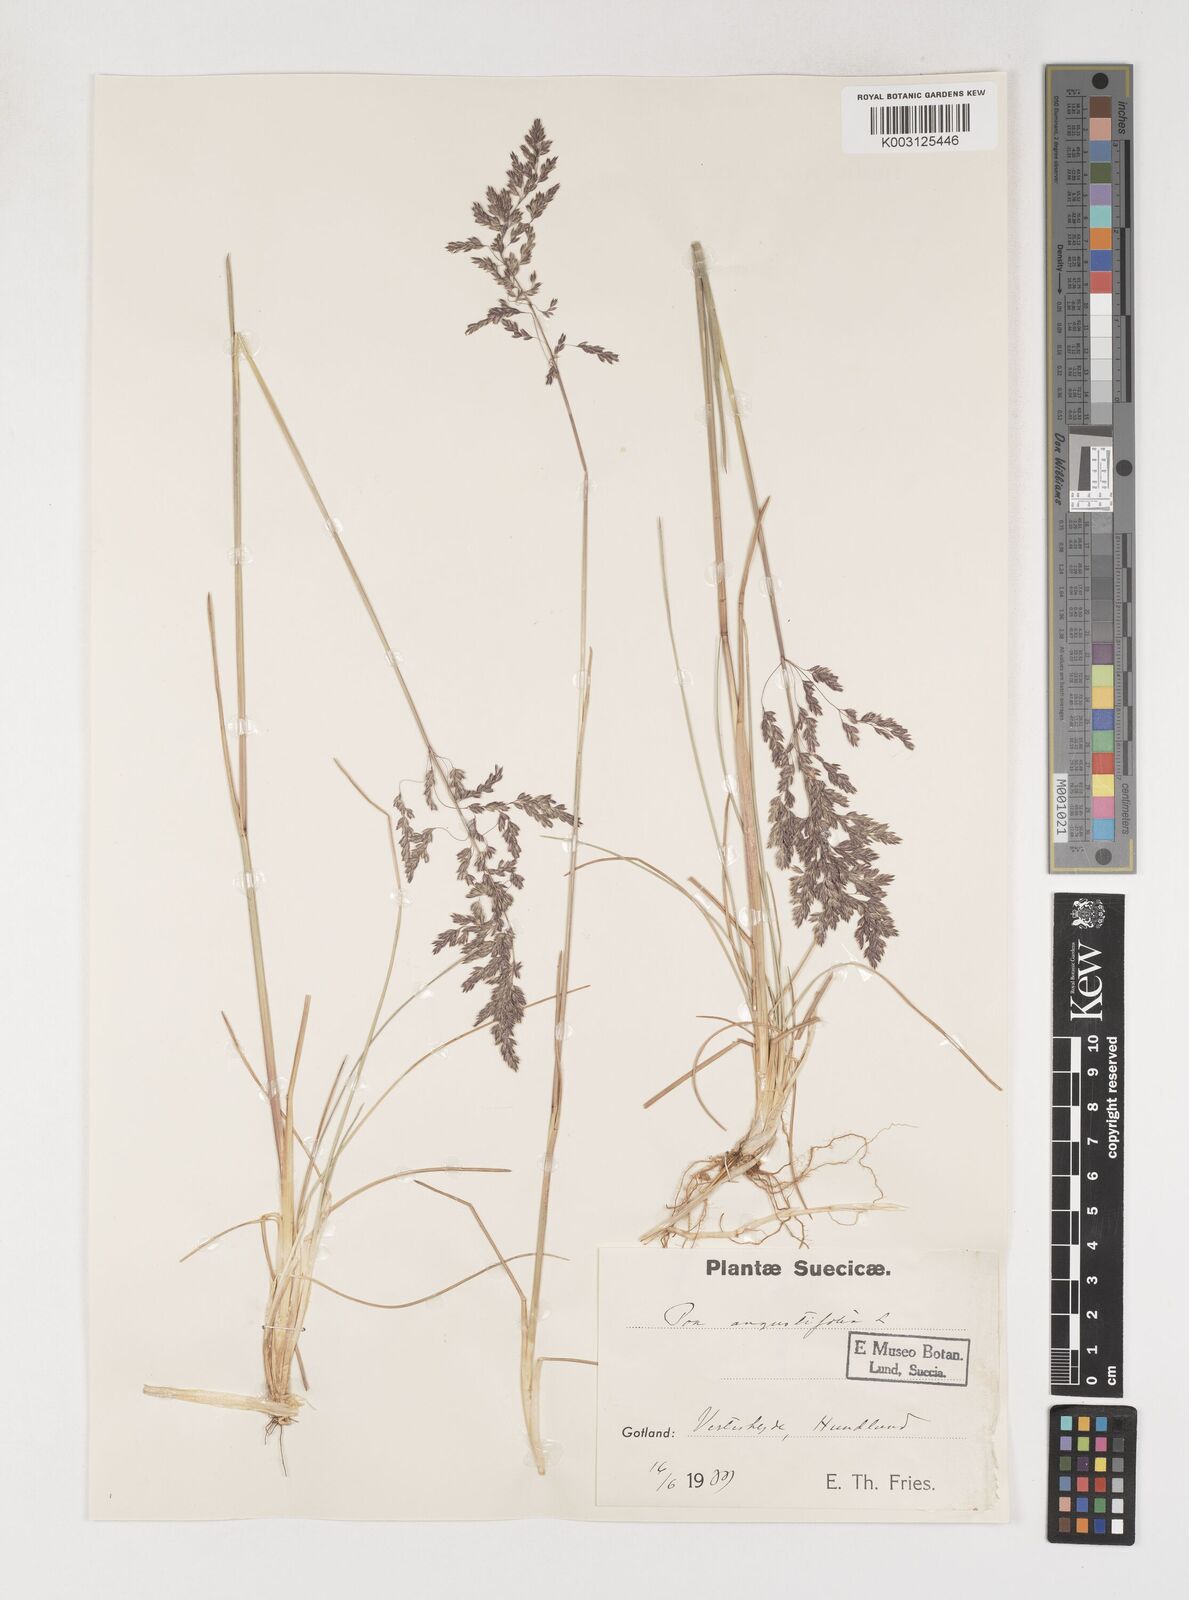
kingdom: Plantae
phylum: Tracheophyta
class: Liliopsida
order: Poales
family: Poaceae
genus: Poa
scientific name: Poa pratensis
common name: Kentucky bluegrass
